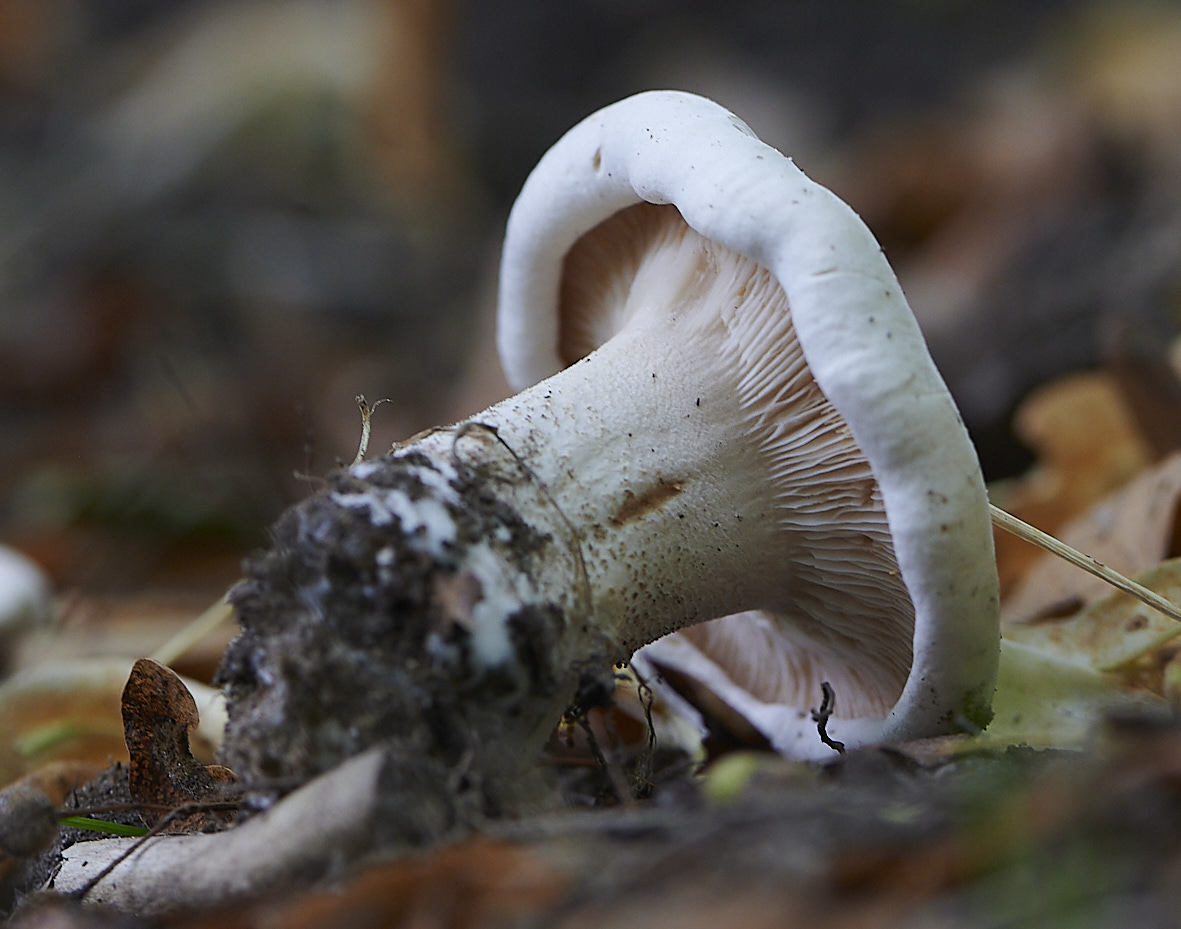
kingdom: Fungi
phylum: Basidiomycota
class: Agaricomycetes
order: Agaricales
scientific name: Agaricales
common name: champignonordenen
